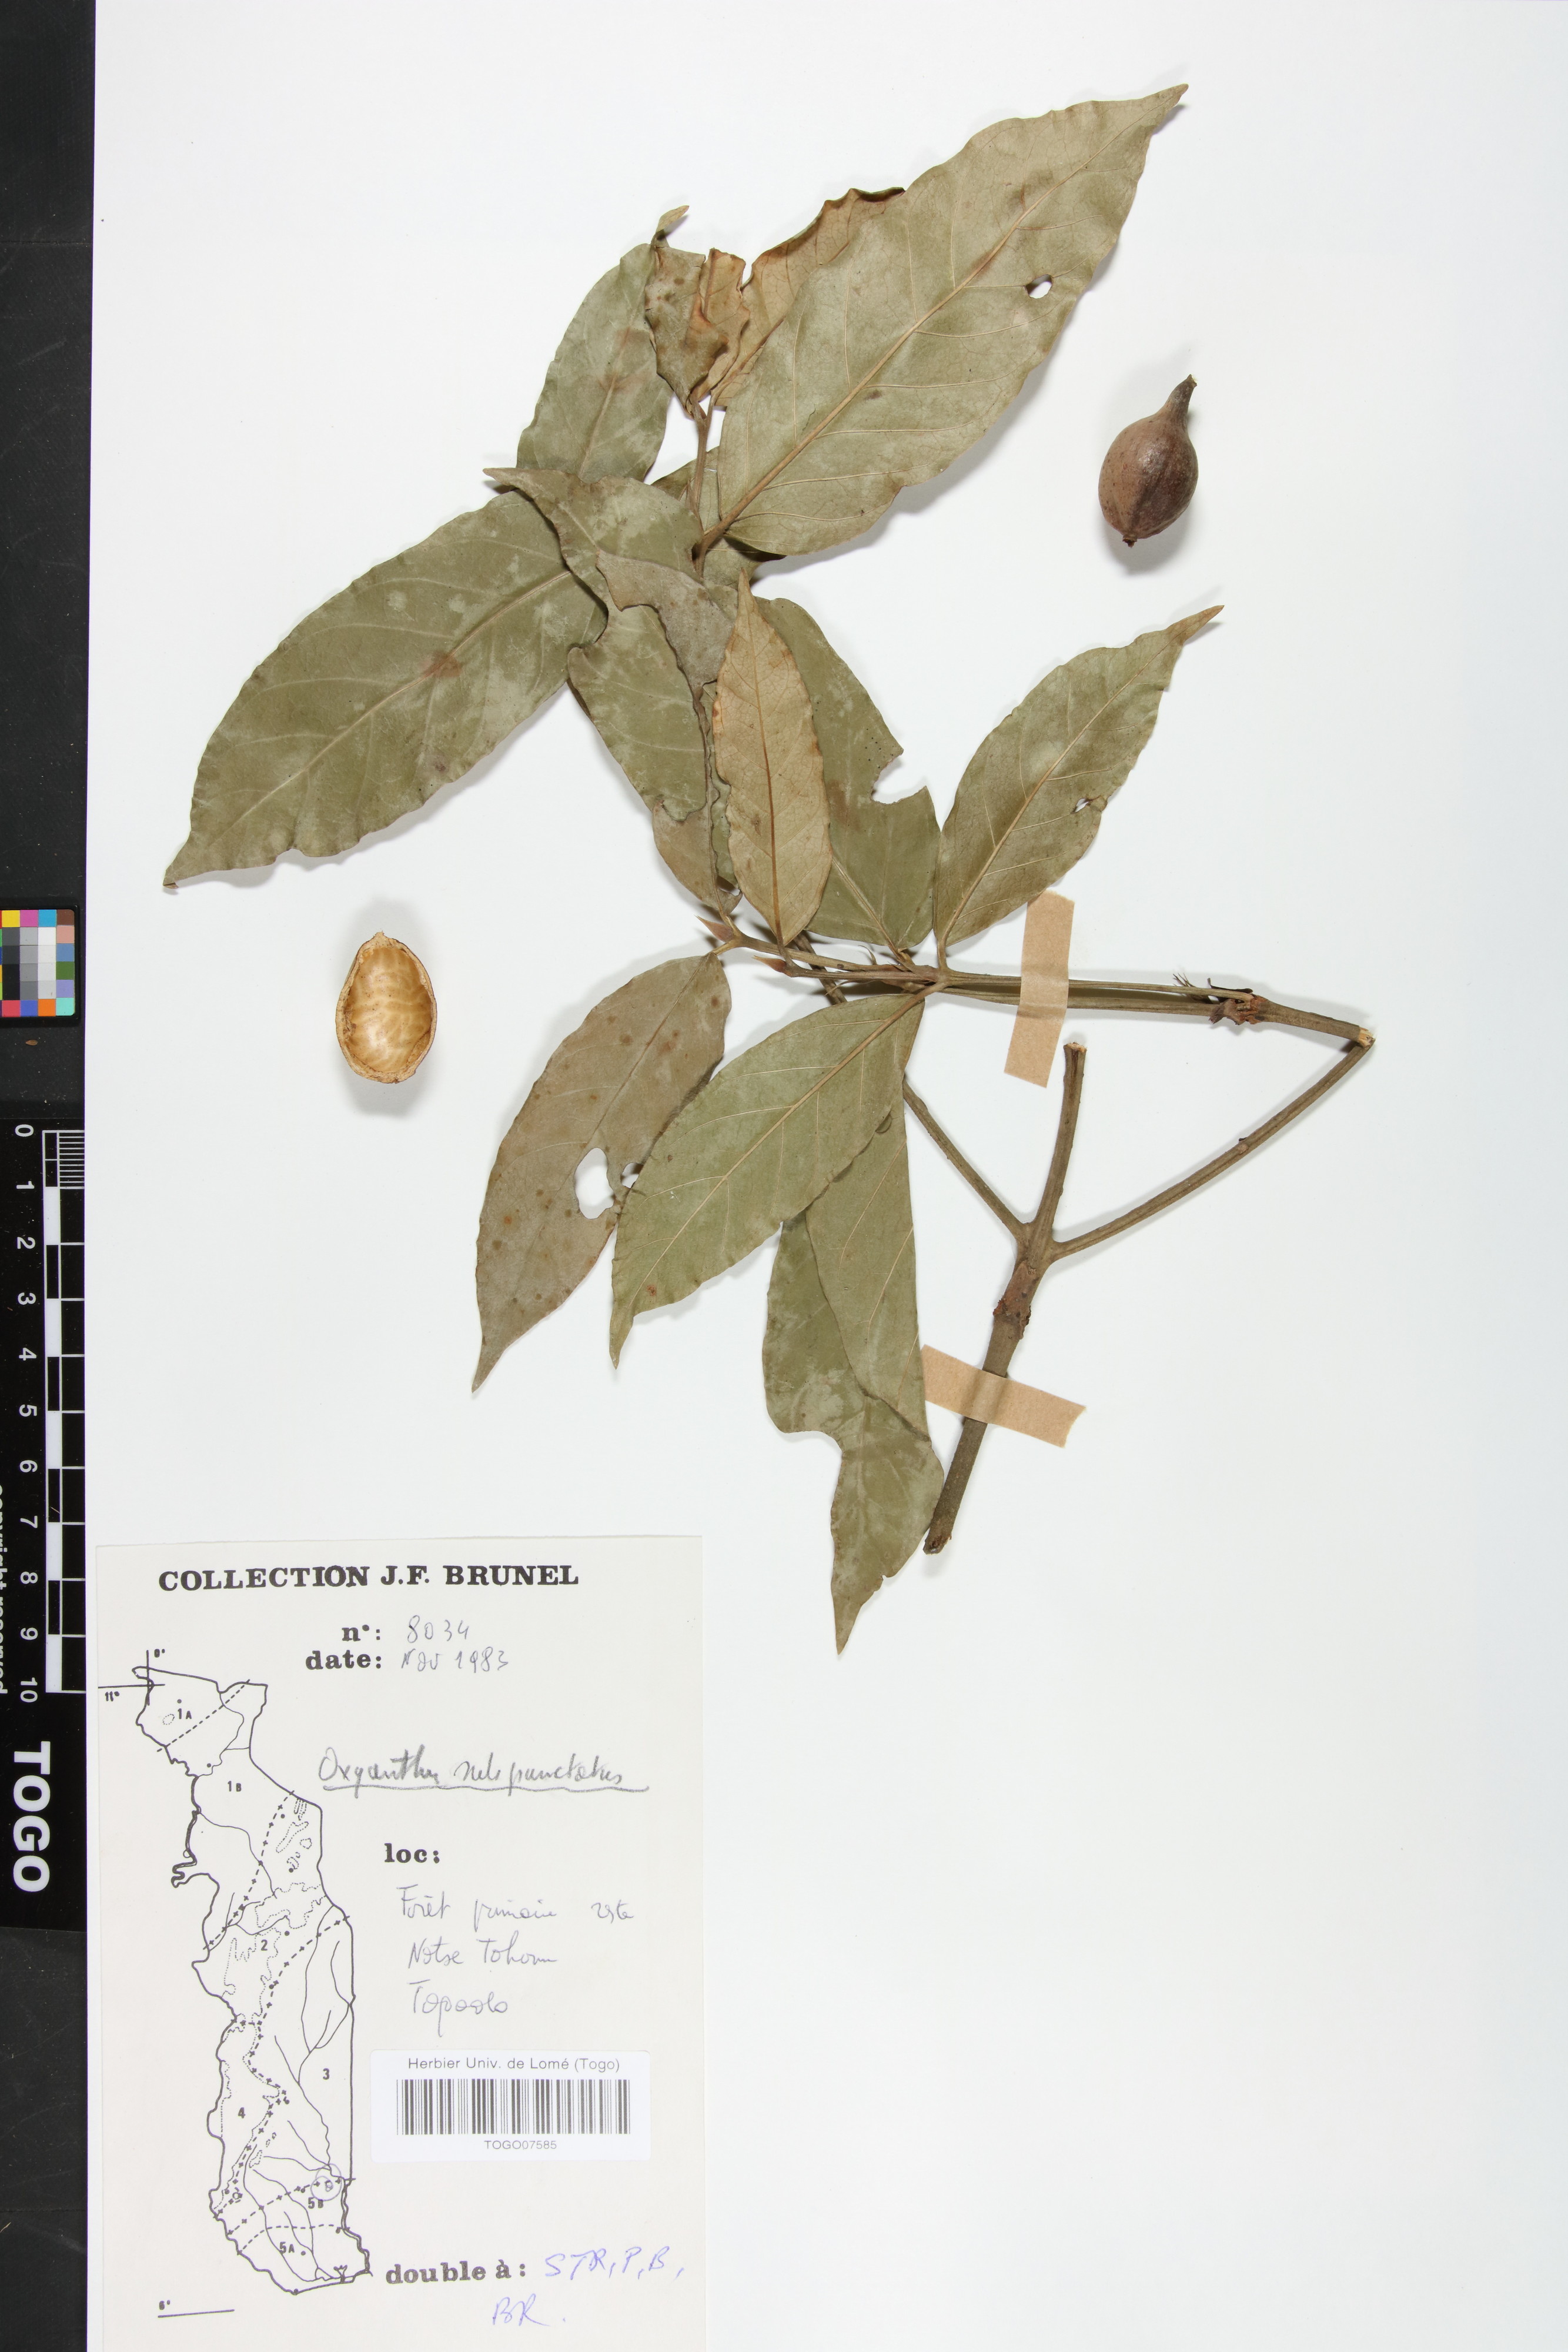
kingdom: Plantae
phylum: Tracheophyta
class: Magnoliopsida
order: Gentianales
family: Rubiaceae
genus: Oxyanthus
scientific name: Oxyanthus subpunctatus
